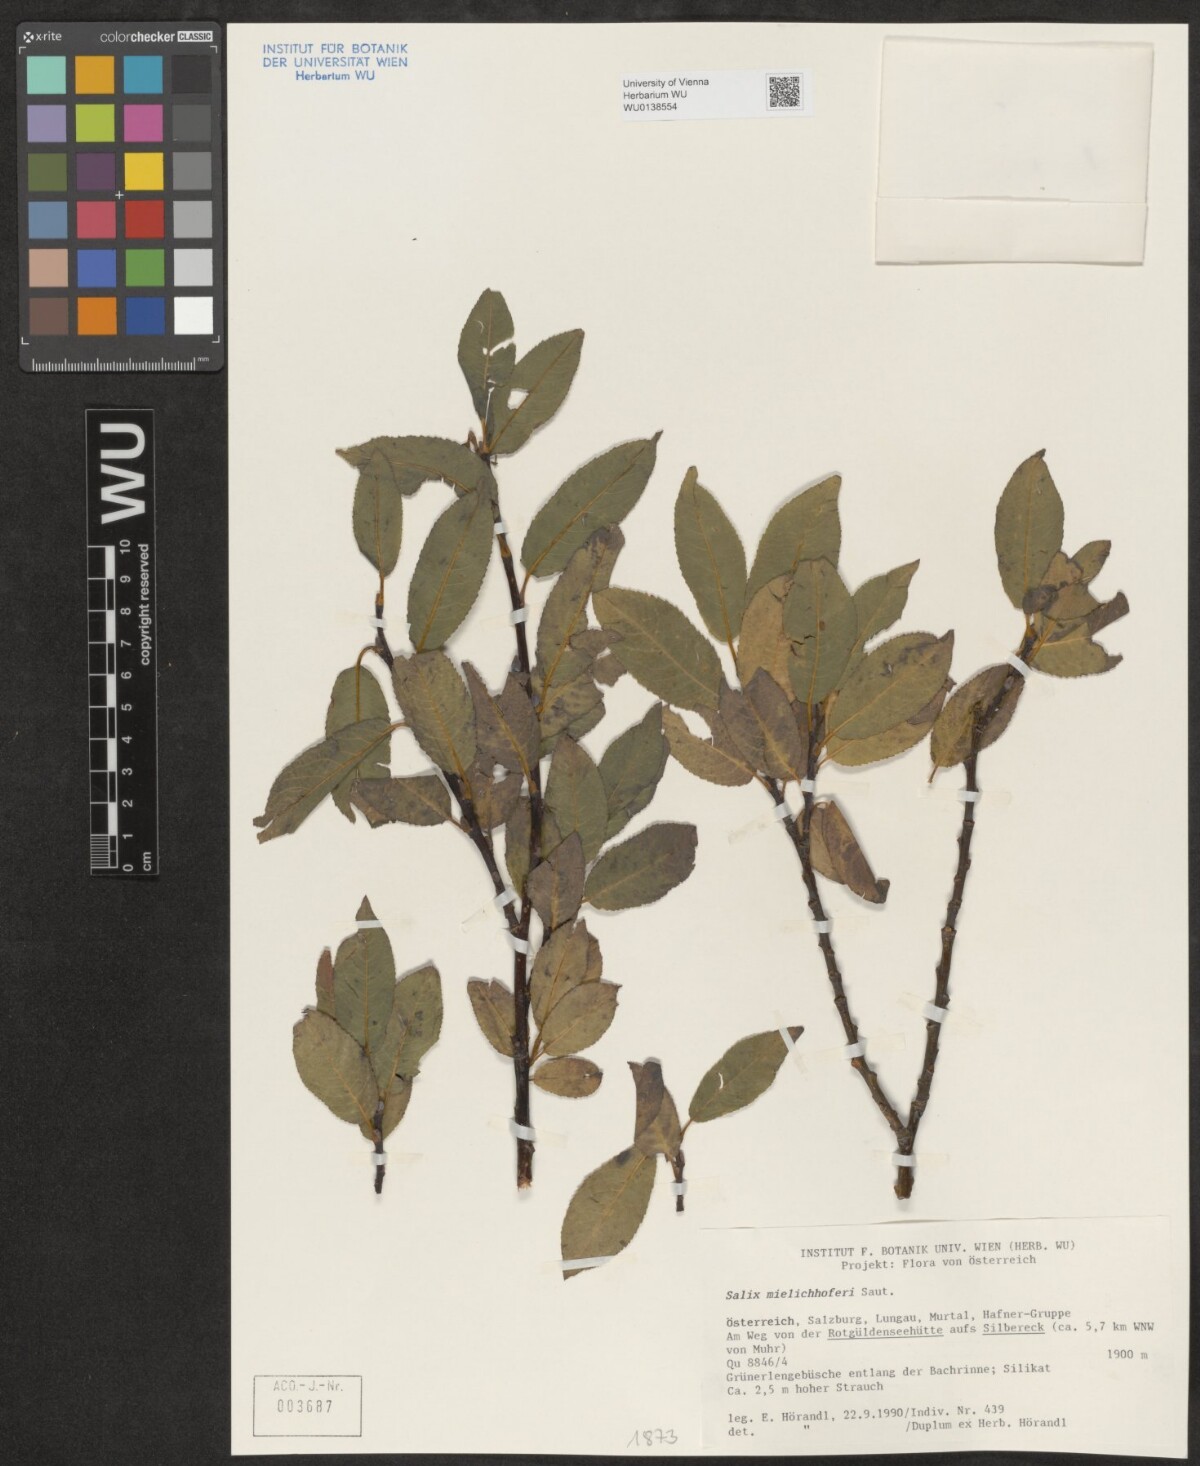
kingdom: Plantae
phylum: Tracheophyta
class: Magnoliopsida
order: Malpighiales
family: Salicaceae
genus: Salix
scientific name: Salix mielichhoferi
